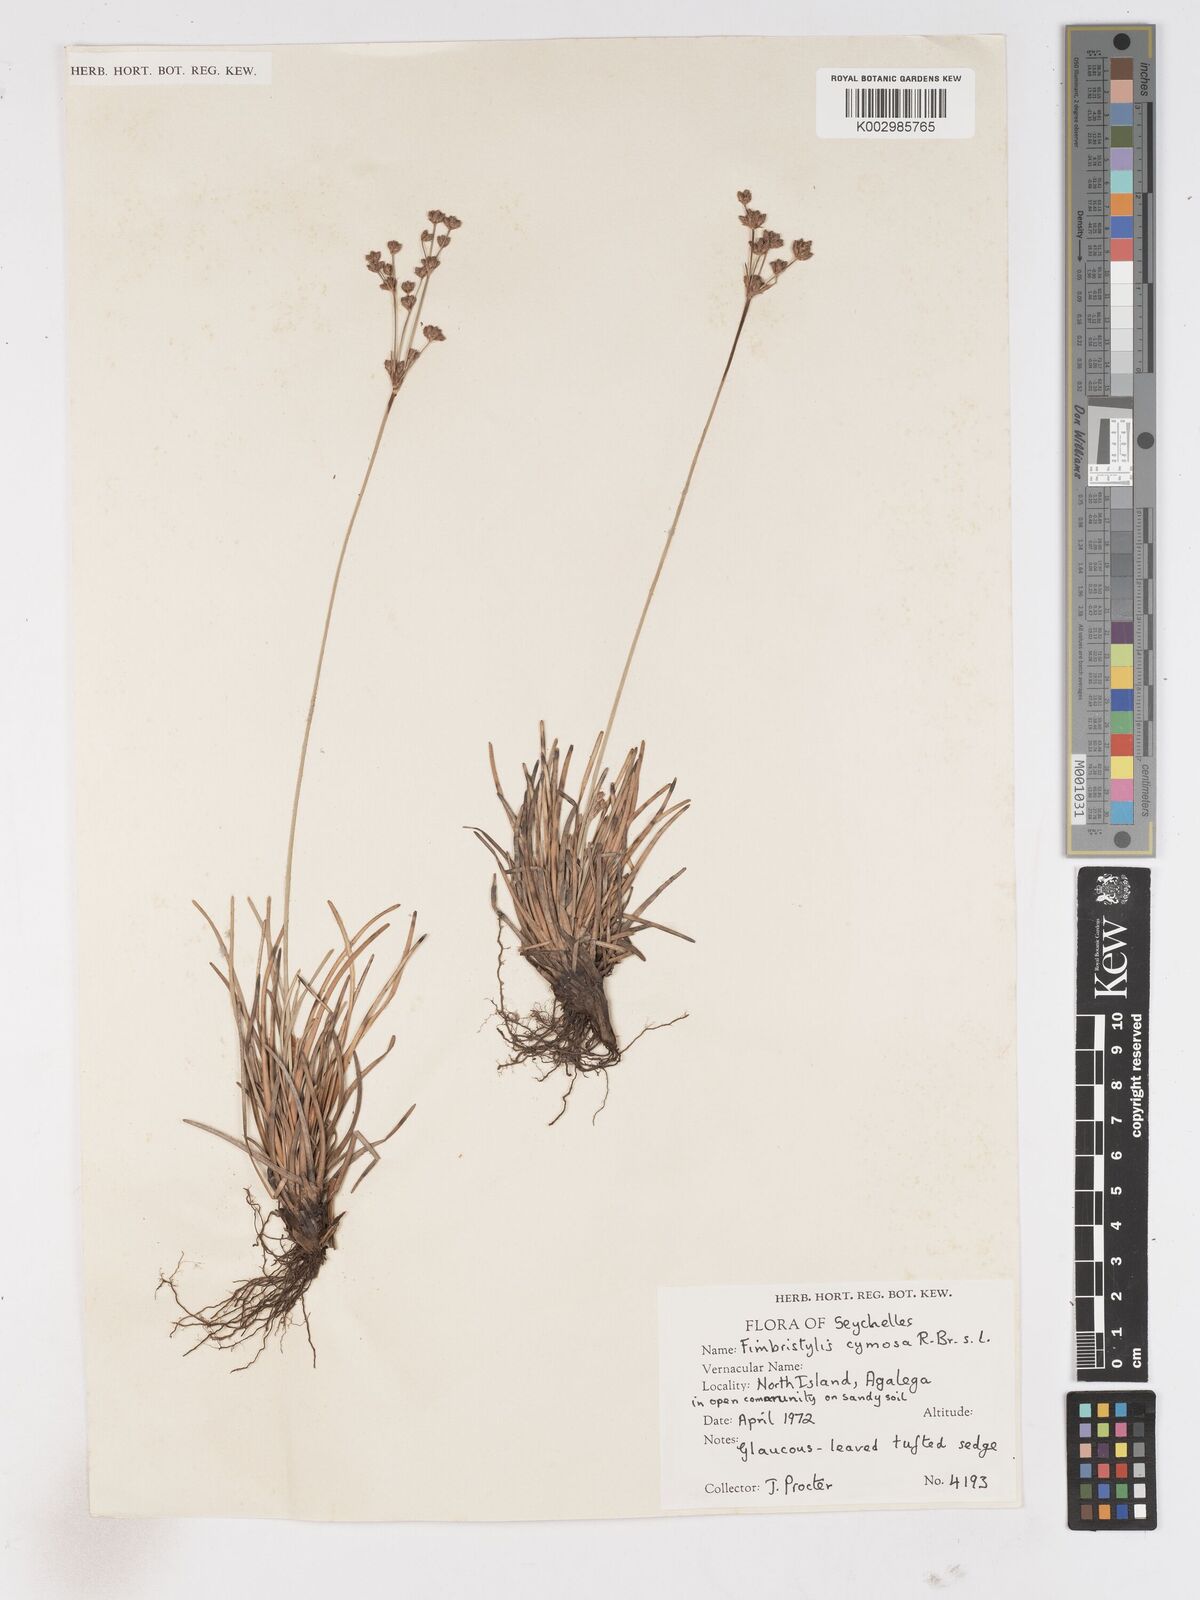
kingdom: Plantae
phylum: Tracheophyta
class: Liliopsida
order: Poales
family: Cyperaceae
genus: Fimbristylis
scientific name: Fimbristylis cymosa
